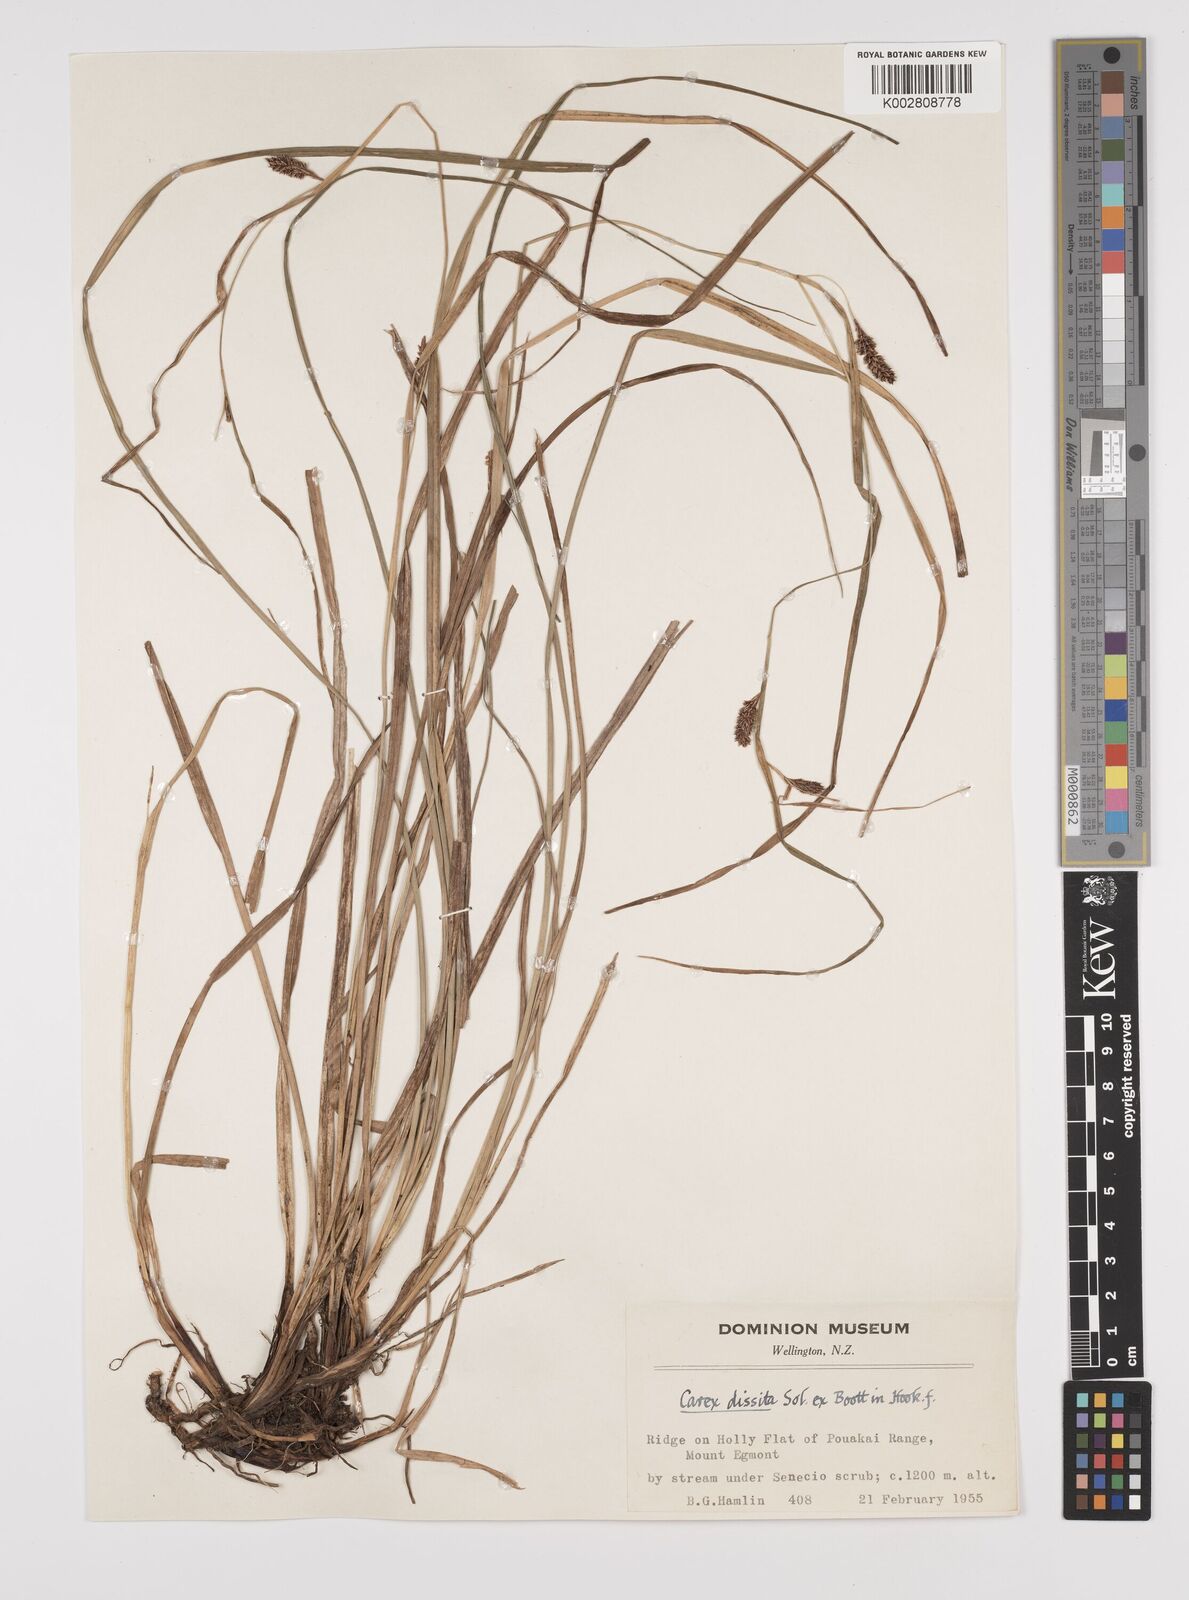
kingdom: Plantae
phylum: Tracheophyta
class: Liliopsida
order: Poales
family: Cyperaceae
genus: Carex
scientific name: Carex dissita
